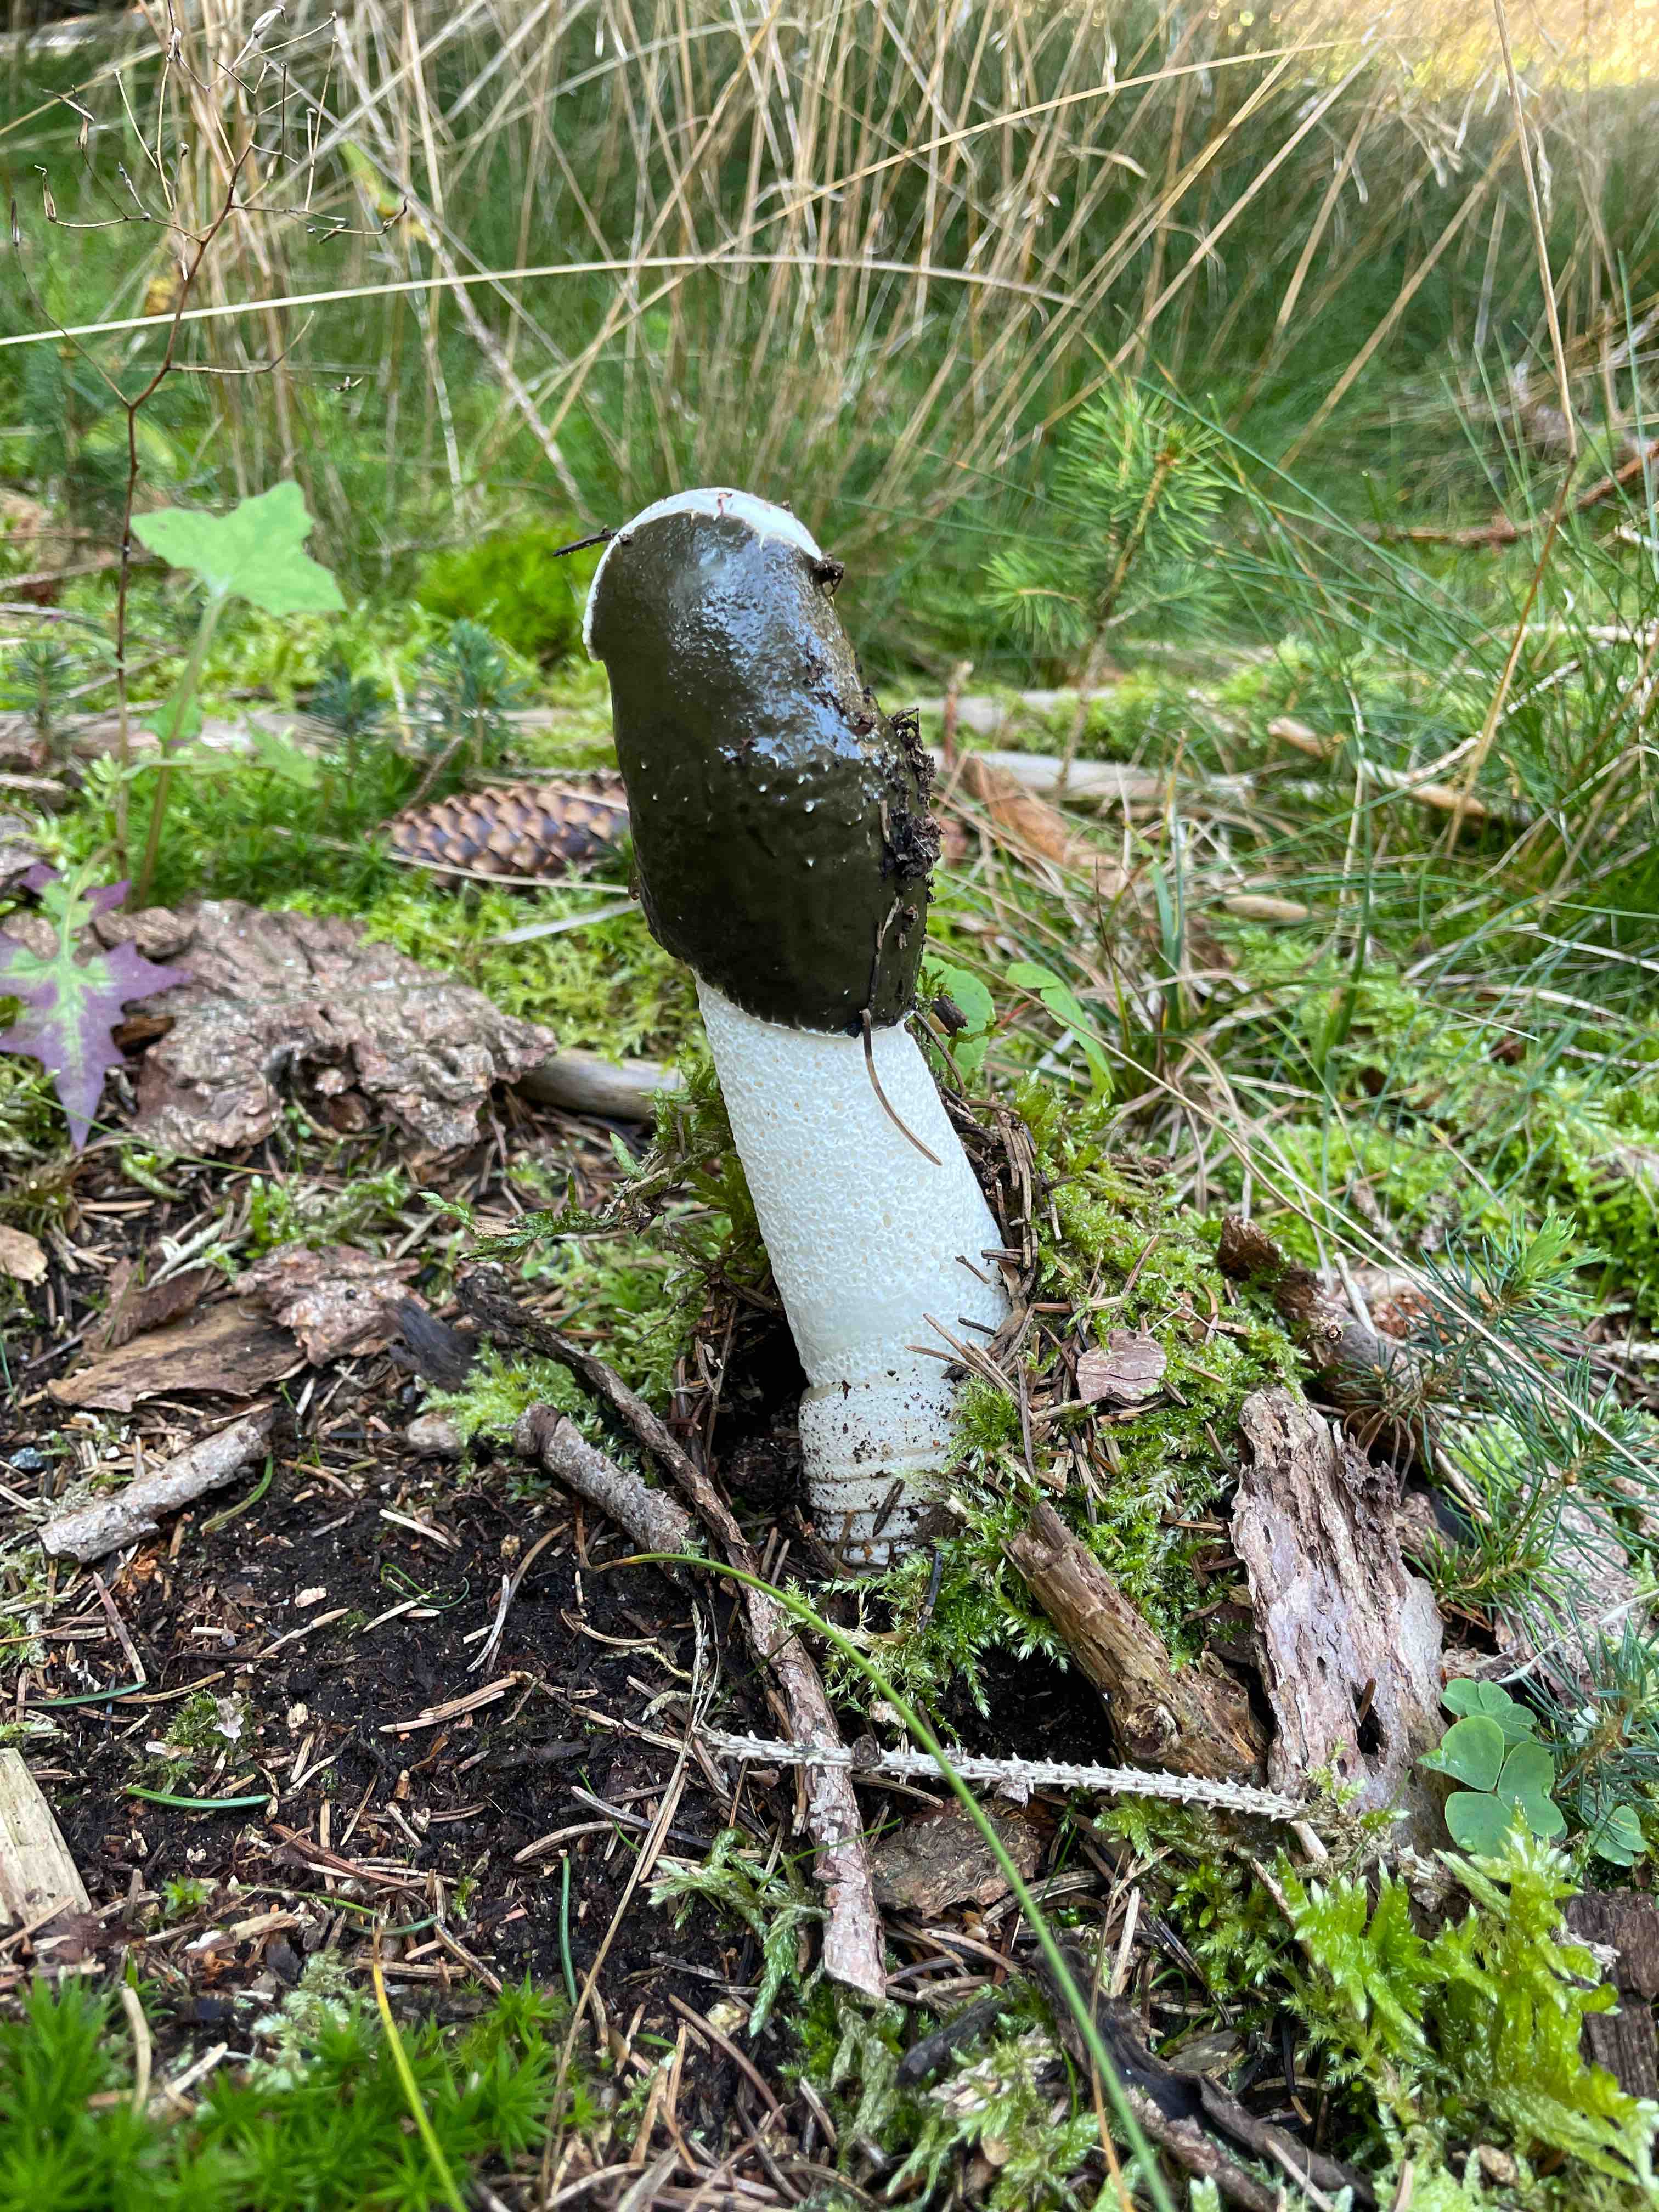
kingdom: Fungi
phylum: Basidiomycota
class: Agaricomycetes
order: Phallales
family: Phallaceae
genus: Phallus
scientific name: Phallus impudicus
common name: almindelig stinksvamp
